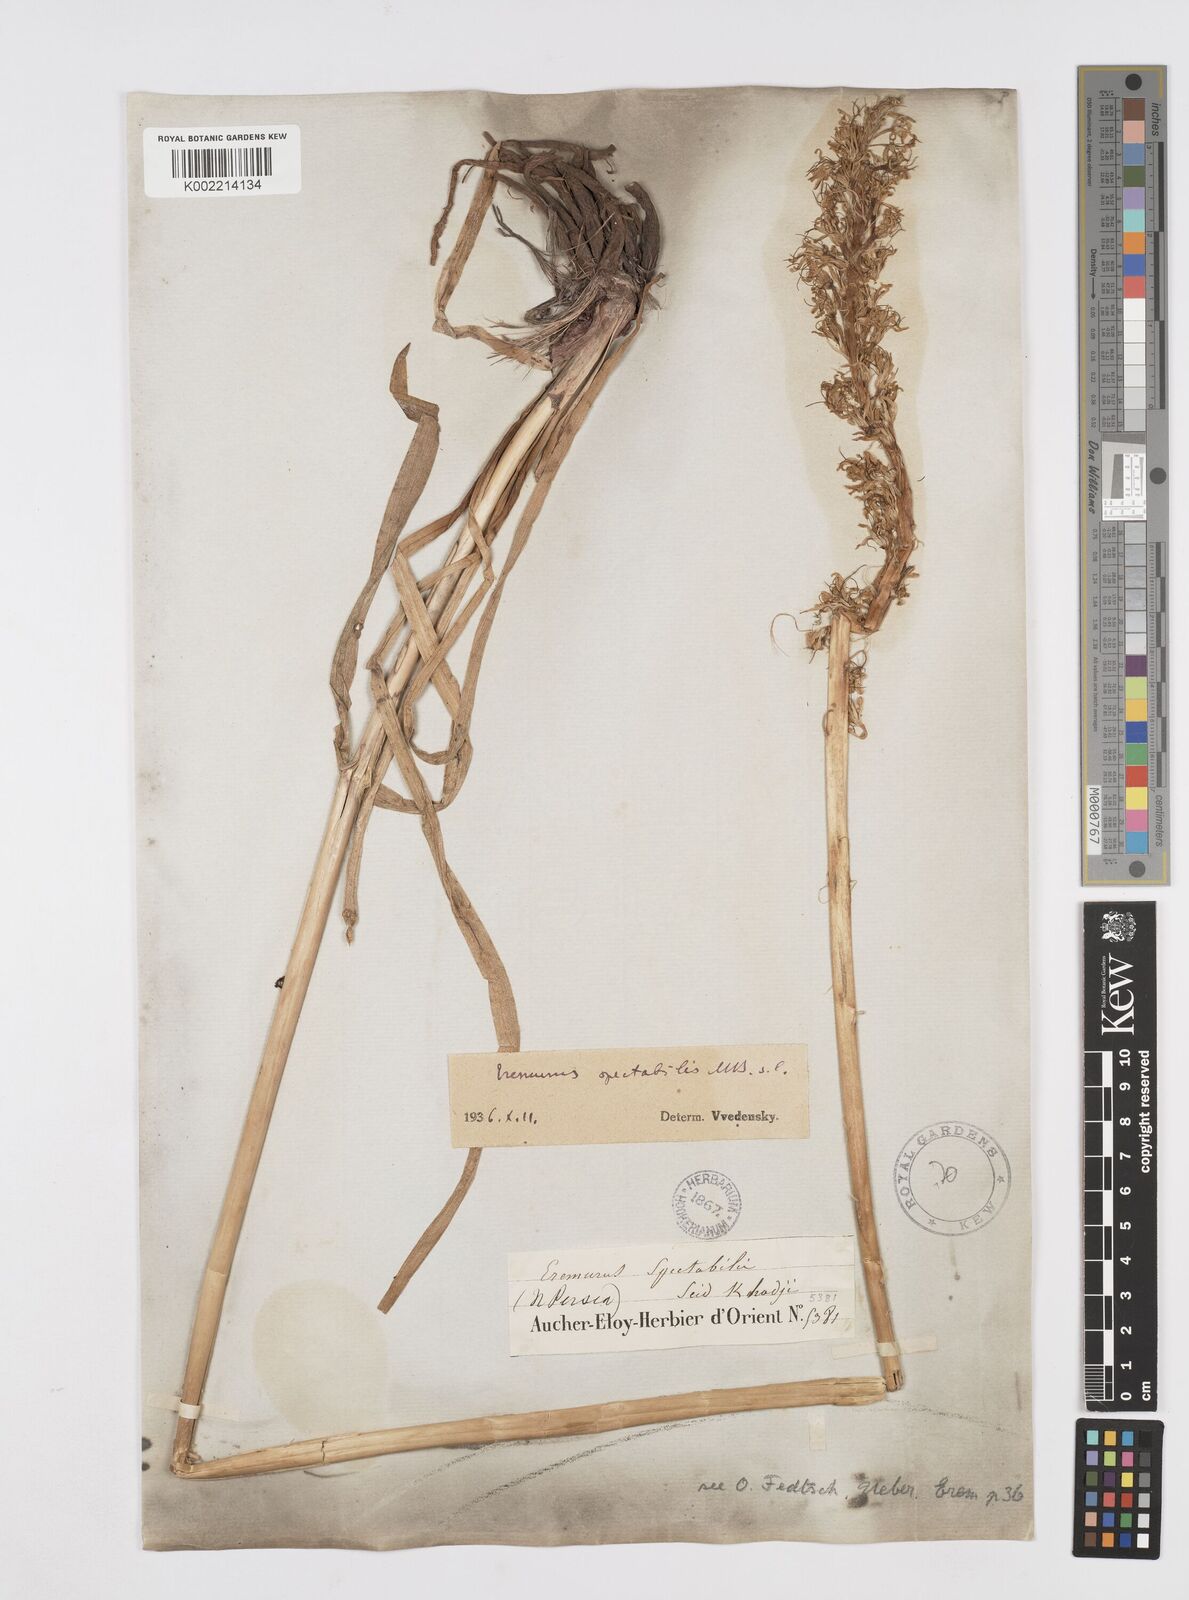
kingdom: Plantae
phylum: Tracheophyta
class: Liliopsida
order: Asparagales
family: Asphodelaceae
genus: Eremurus
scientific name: Eremurus spectabilis
